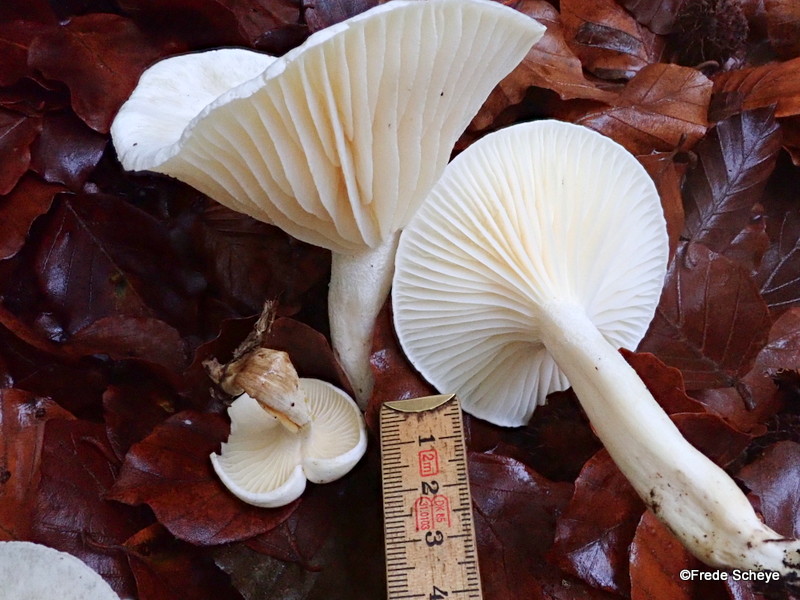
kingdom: Fungi
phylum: Basidiomycota
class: Agaricomycetes
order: Agaricales
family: Hygrophoraceae
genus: Hygrophorus
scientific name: Hygrophorus discoxanthus
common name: ildelugtende sneglehat
